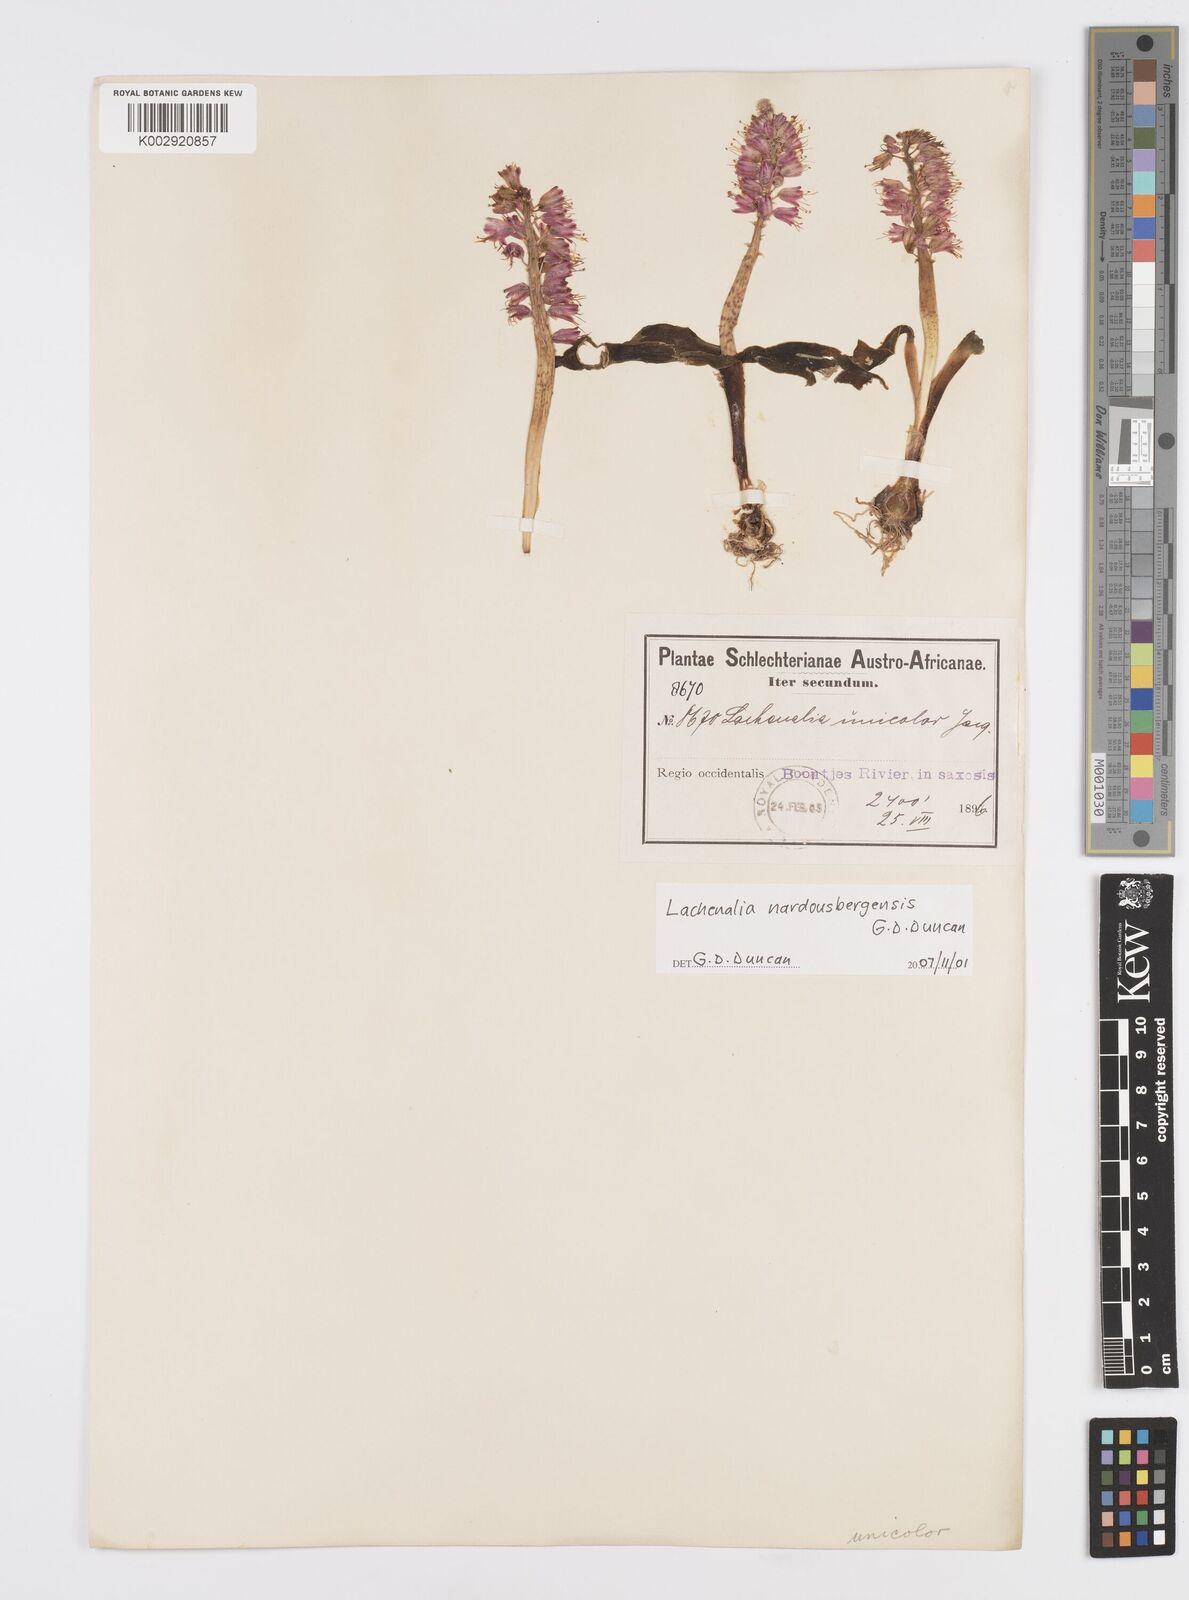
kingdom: Plantae
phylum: Tracheophyta
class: Liliopsida
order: Asparagales
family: Asparagaceae
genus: Lachenalia
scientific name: Lachenalia nardousbergensis
